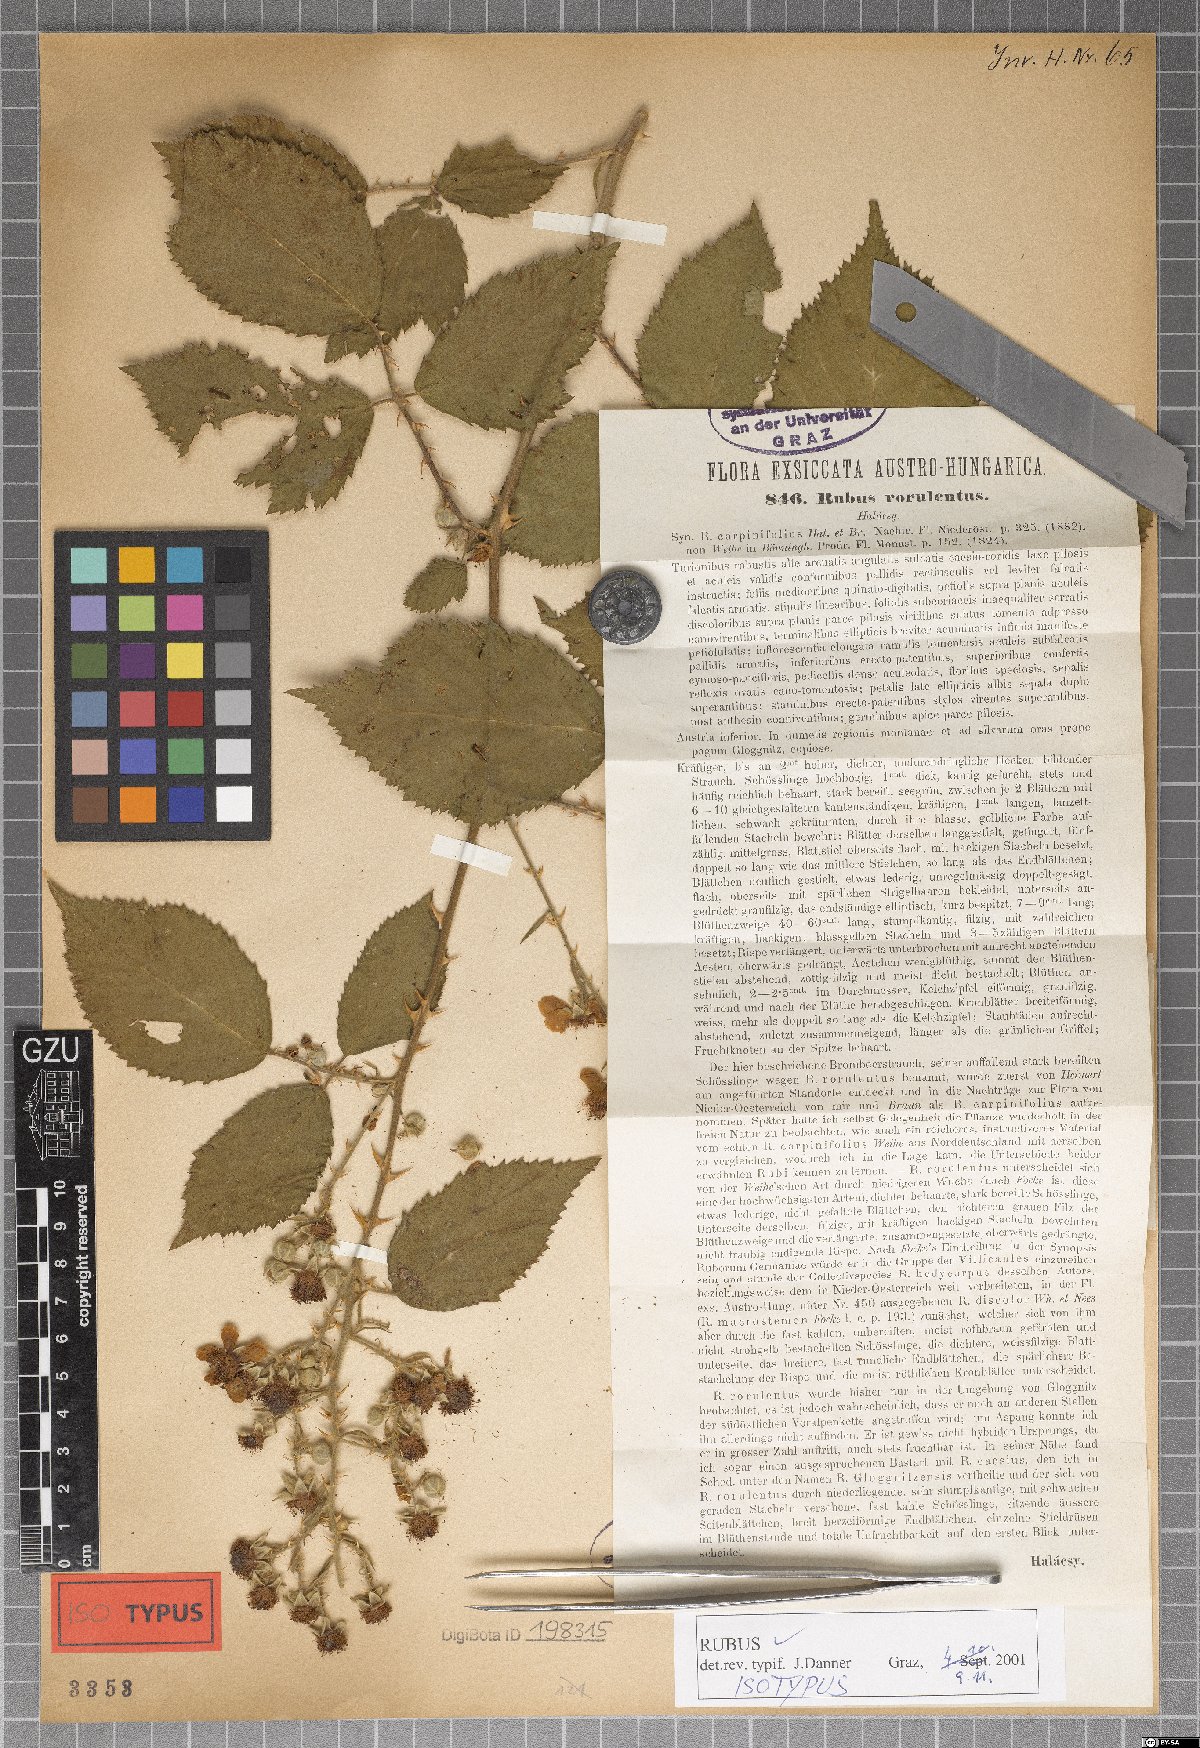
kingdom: Plantae
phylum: Tracheophyta
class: Magnoliopsida
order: Rosales
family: Rosaceae
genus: Rubus
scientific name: Rubus rorulentus
